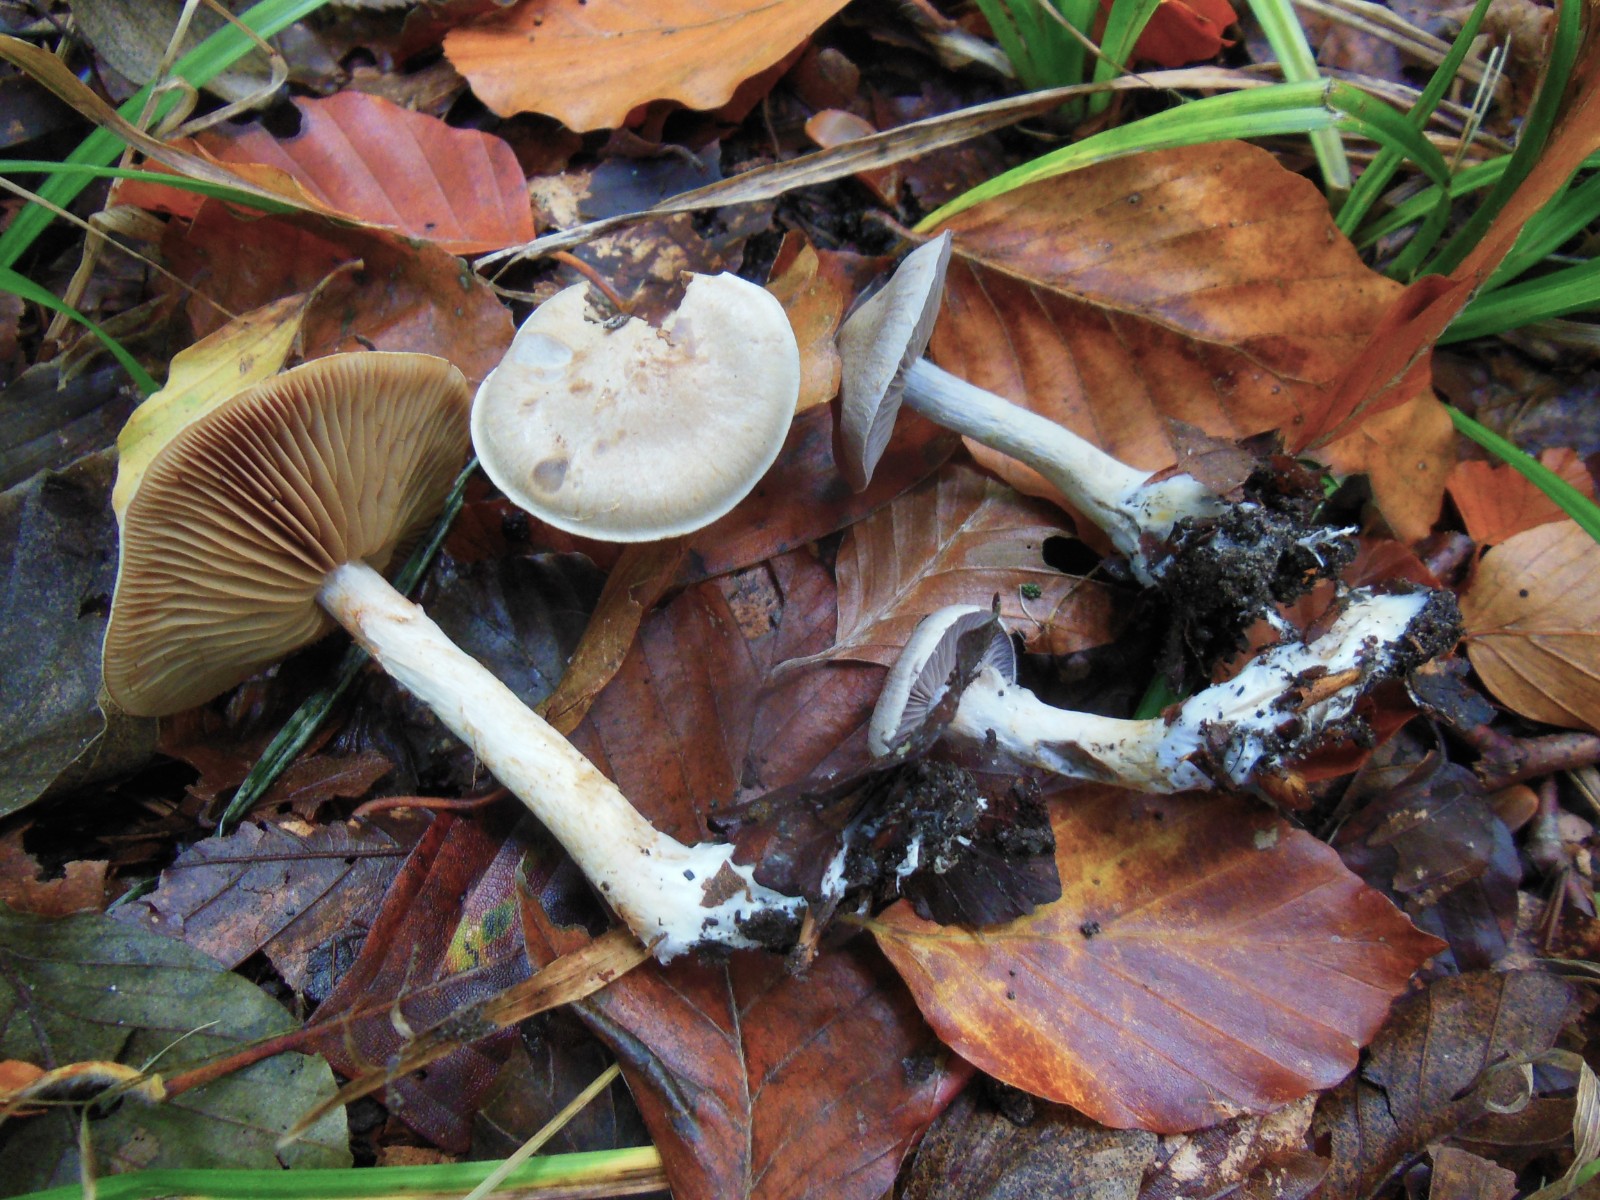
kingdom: Fungi
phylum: Basidiomycota
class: Agaricomycetes
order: Agaricales
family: Cortinariaceae
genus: Cortinarius
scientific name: Cortinarius pelerinii
